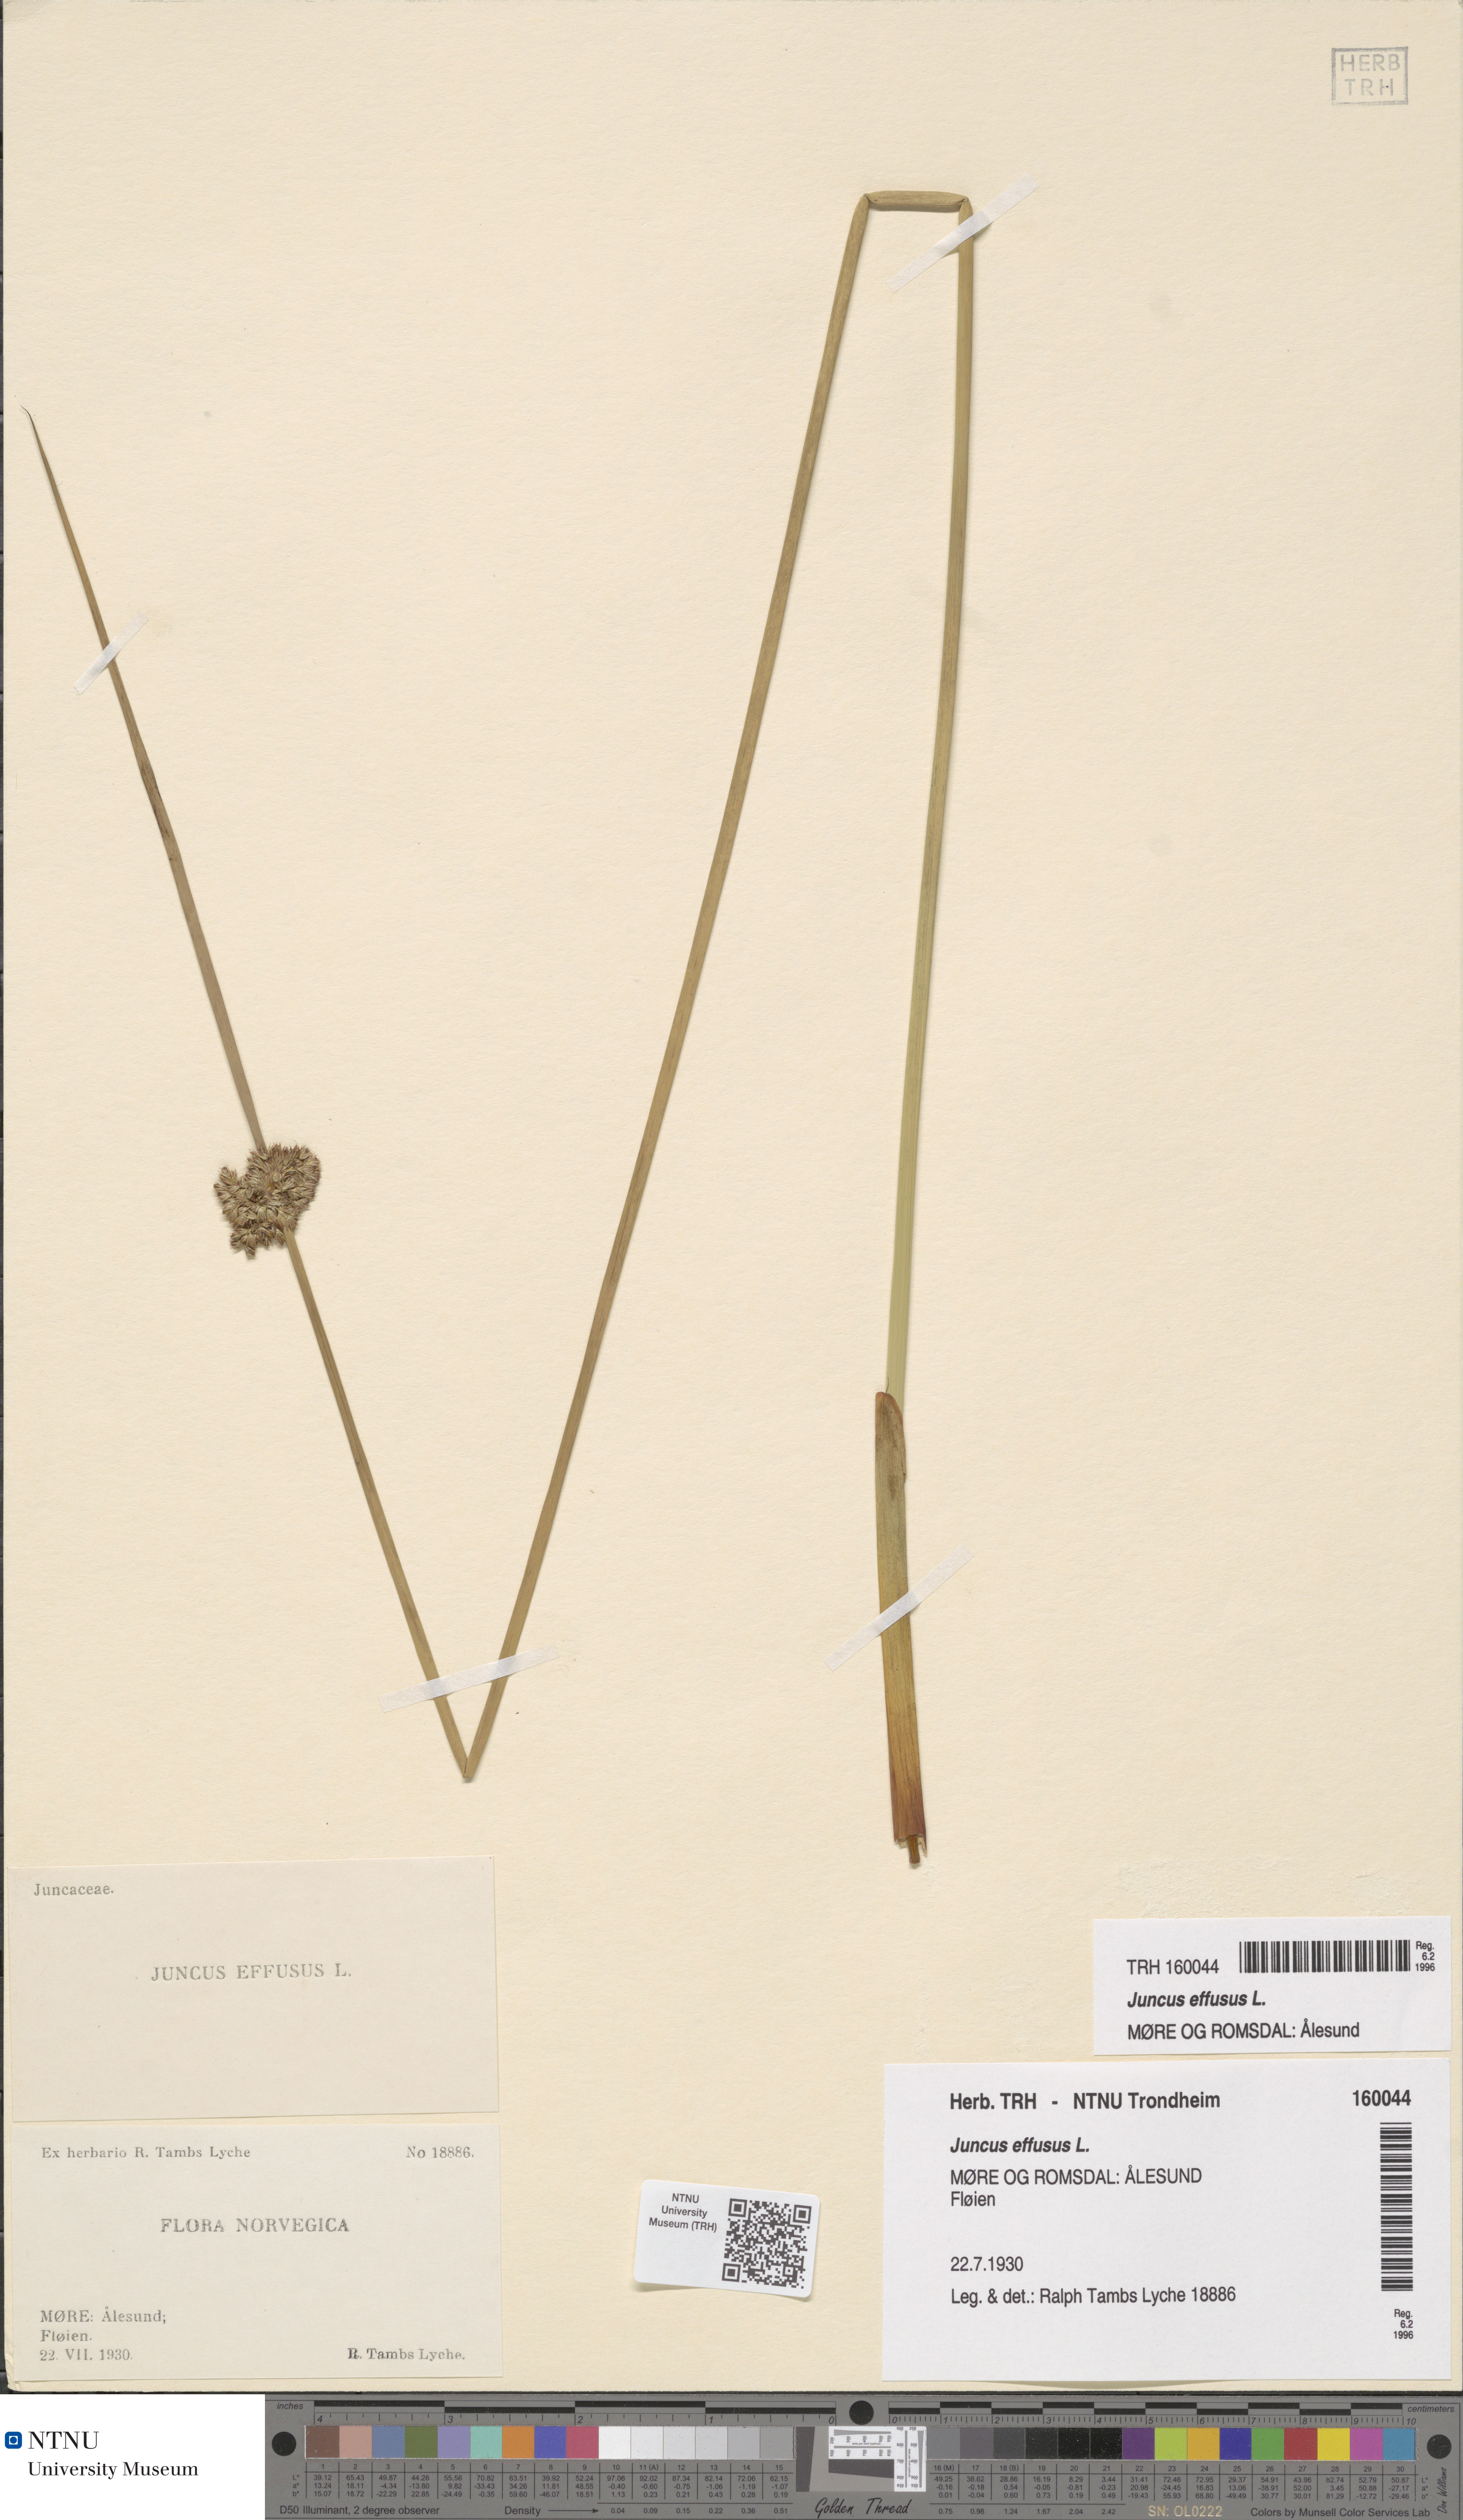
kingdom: Plantae
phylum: Tracheophyta
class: Liliopsida
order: Poales
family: Juncaceae
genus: Juncus
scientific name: Juncus effusus
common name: Soft rush
